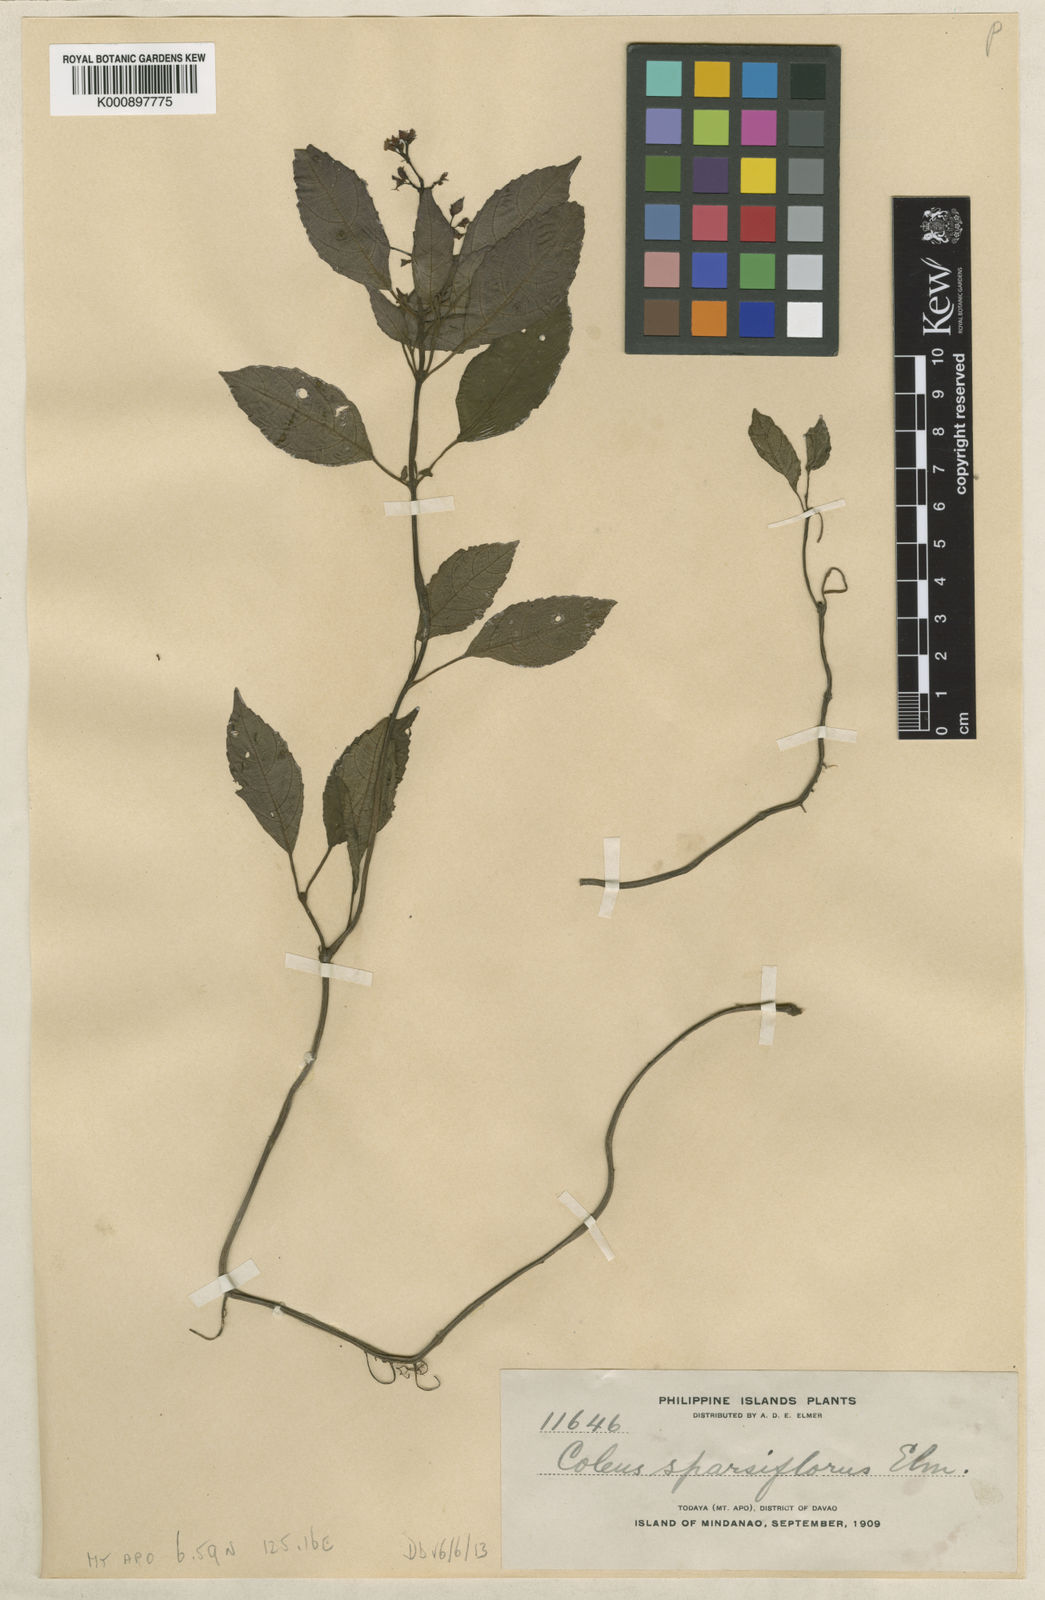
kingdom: Plantae
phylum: Tracheophyta
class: Magnoliopsida
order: Lamiales
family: Lamiaceae
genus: Coleus
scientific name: Coleus galeatus
